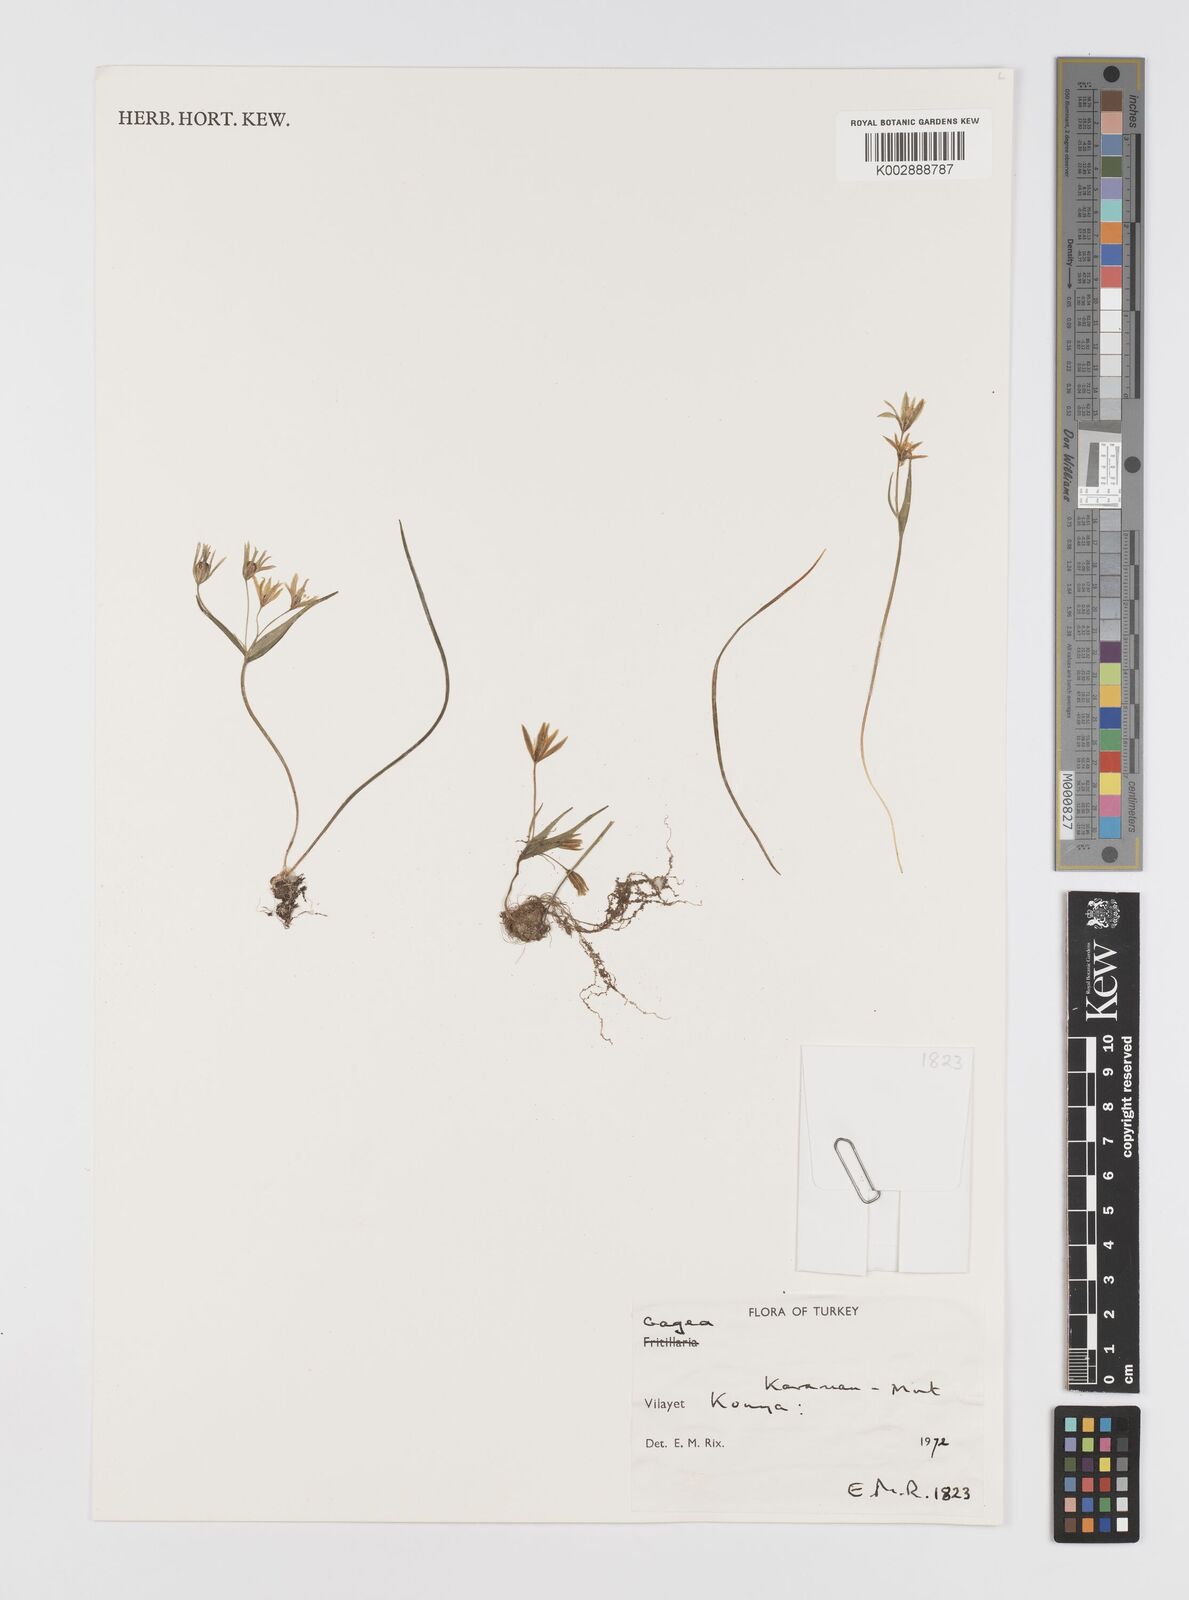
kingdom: Plantae
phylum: Tracheophyta
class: Liliopsida
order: Liliales
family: Liliaceae
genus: Gagea
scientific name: Gagea
